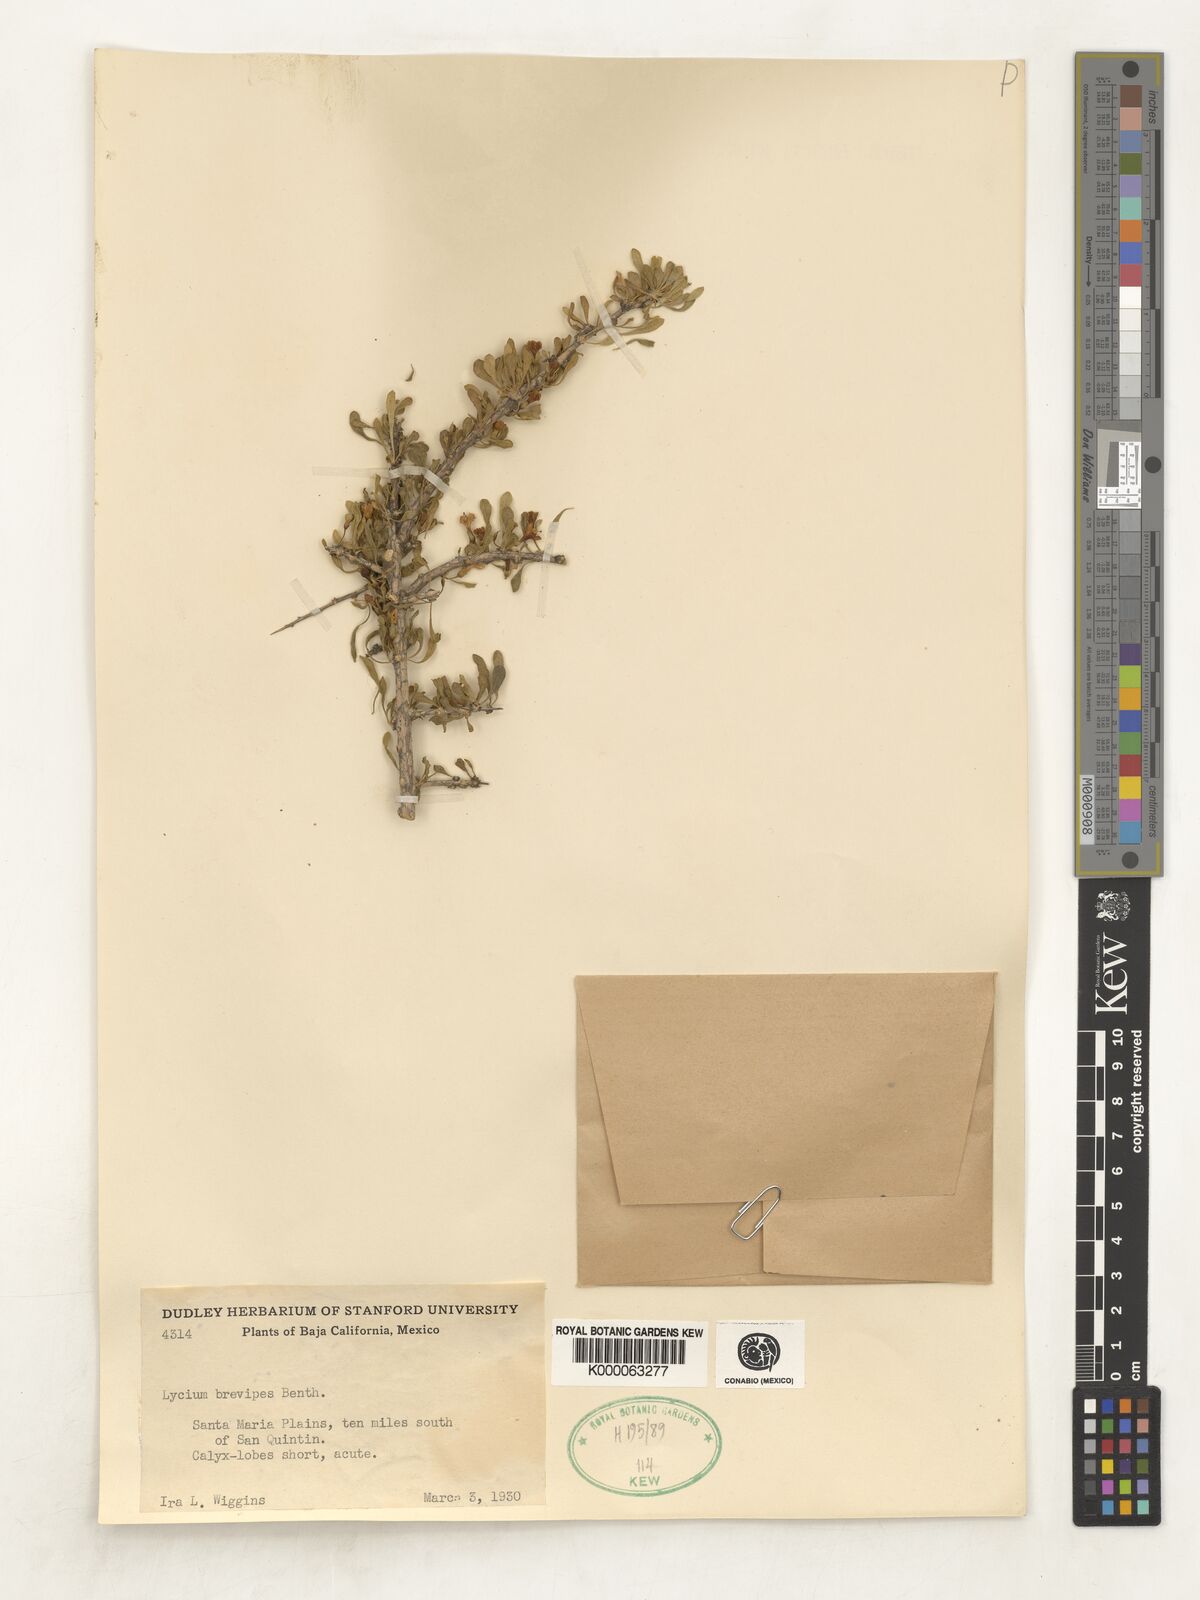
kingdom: Plantae
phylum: Tracheophyta
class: Magnoliopsida
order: Solanales
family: Solanaceae
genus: Lycium
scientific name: Lycium brevipes
